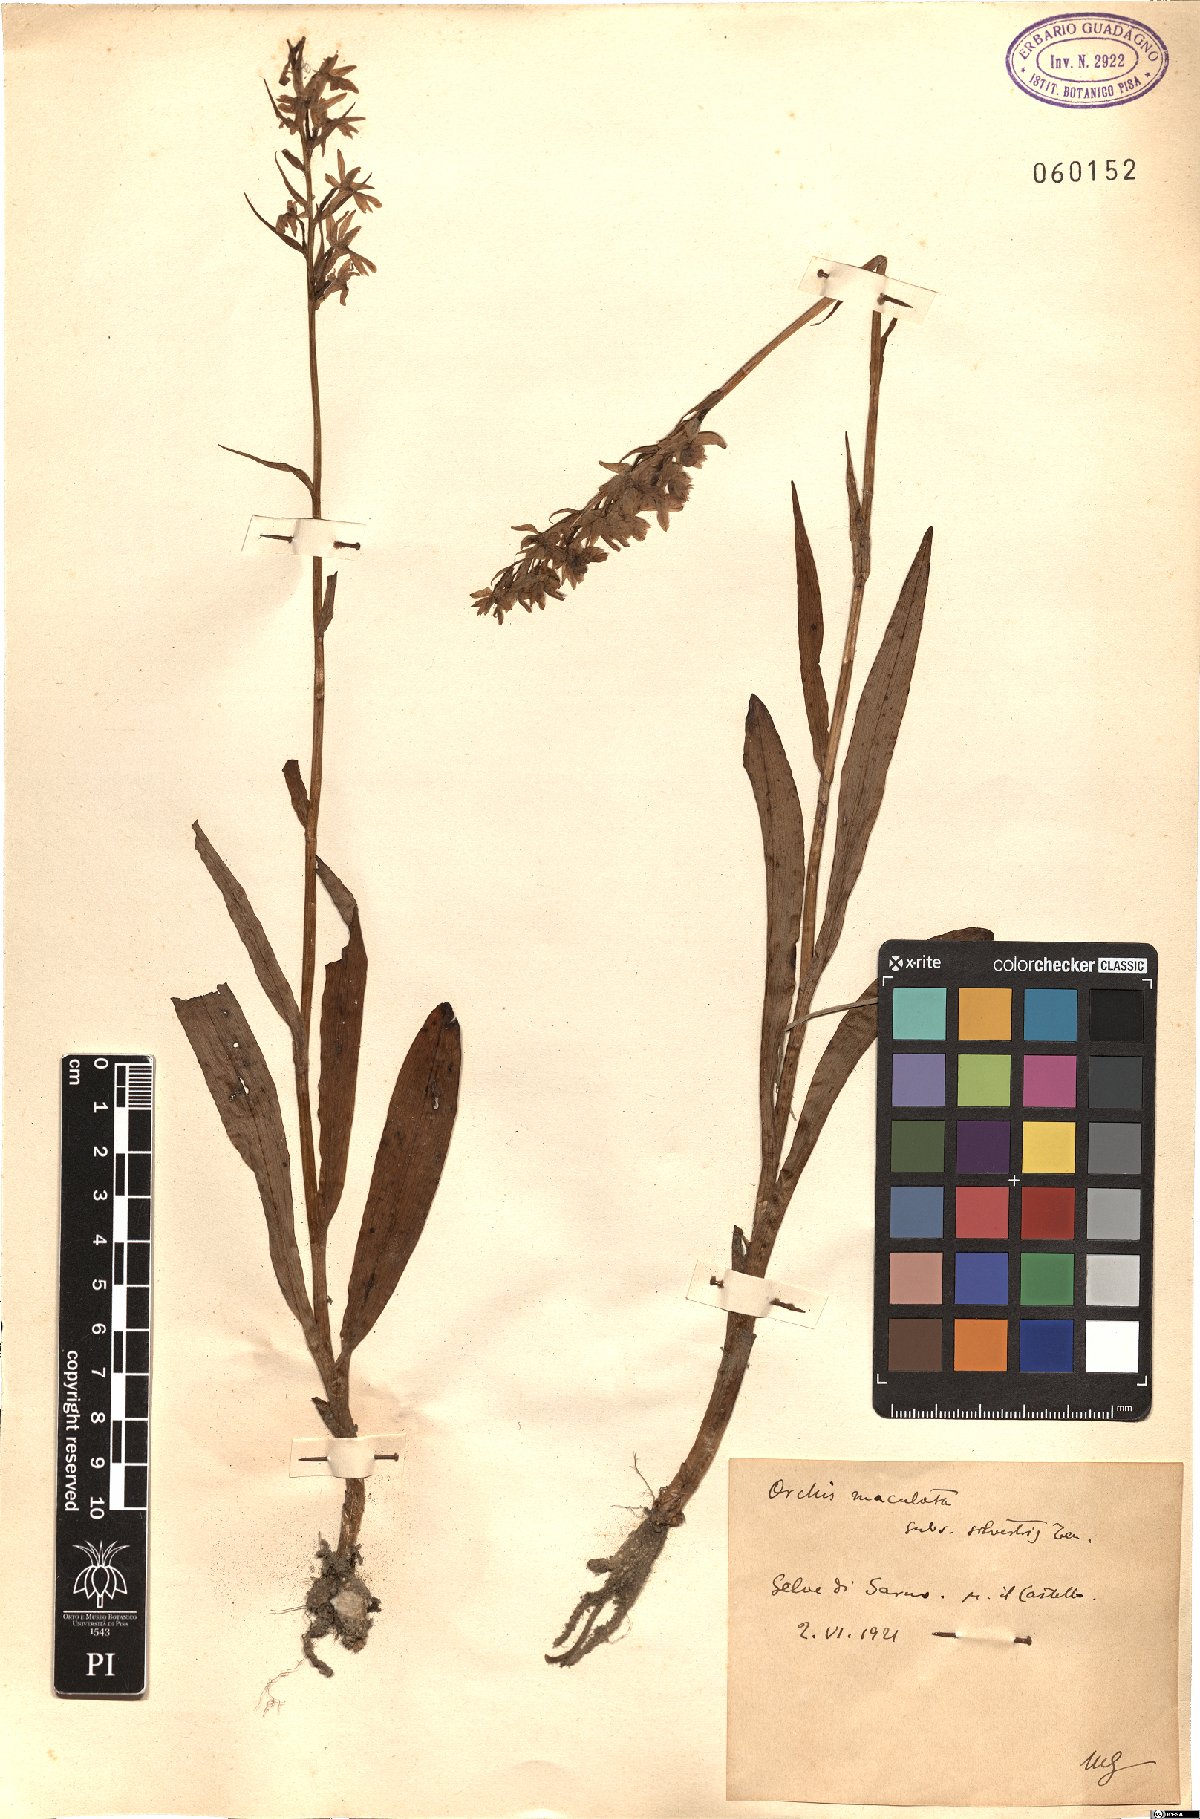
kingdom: Plantae
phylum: Tracheophyta
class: Liliopsida
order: Asparagales
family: Orchidaceae
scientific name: Orchidaceae
